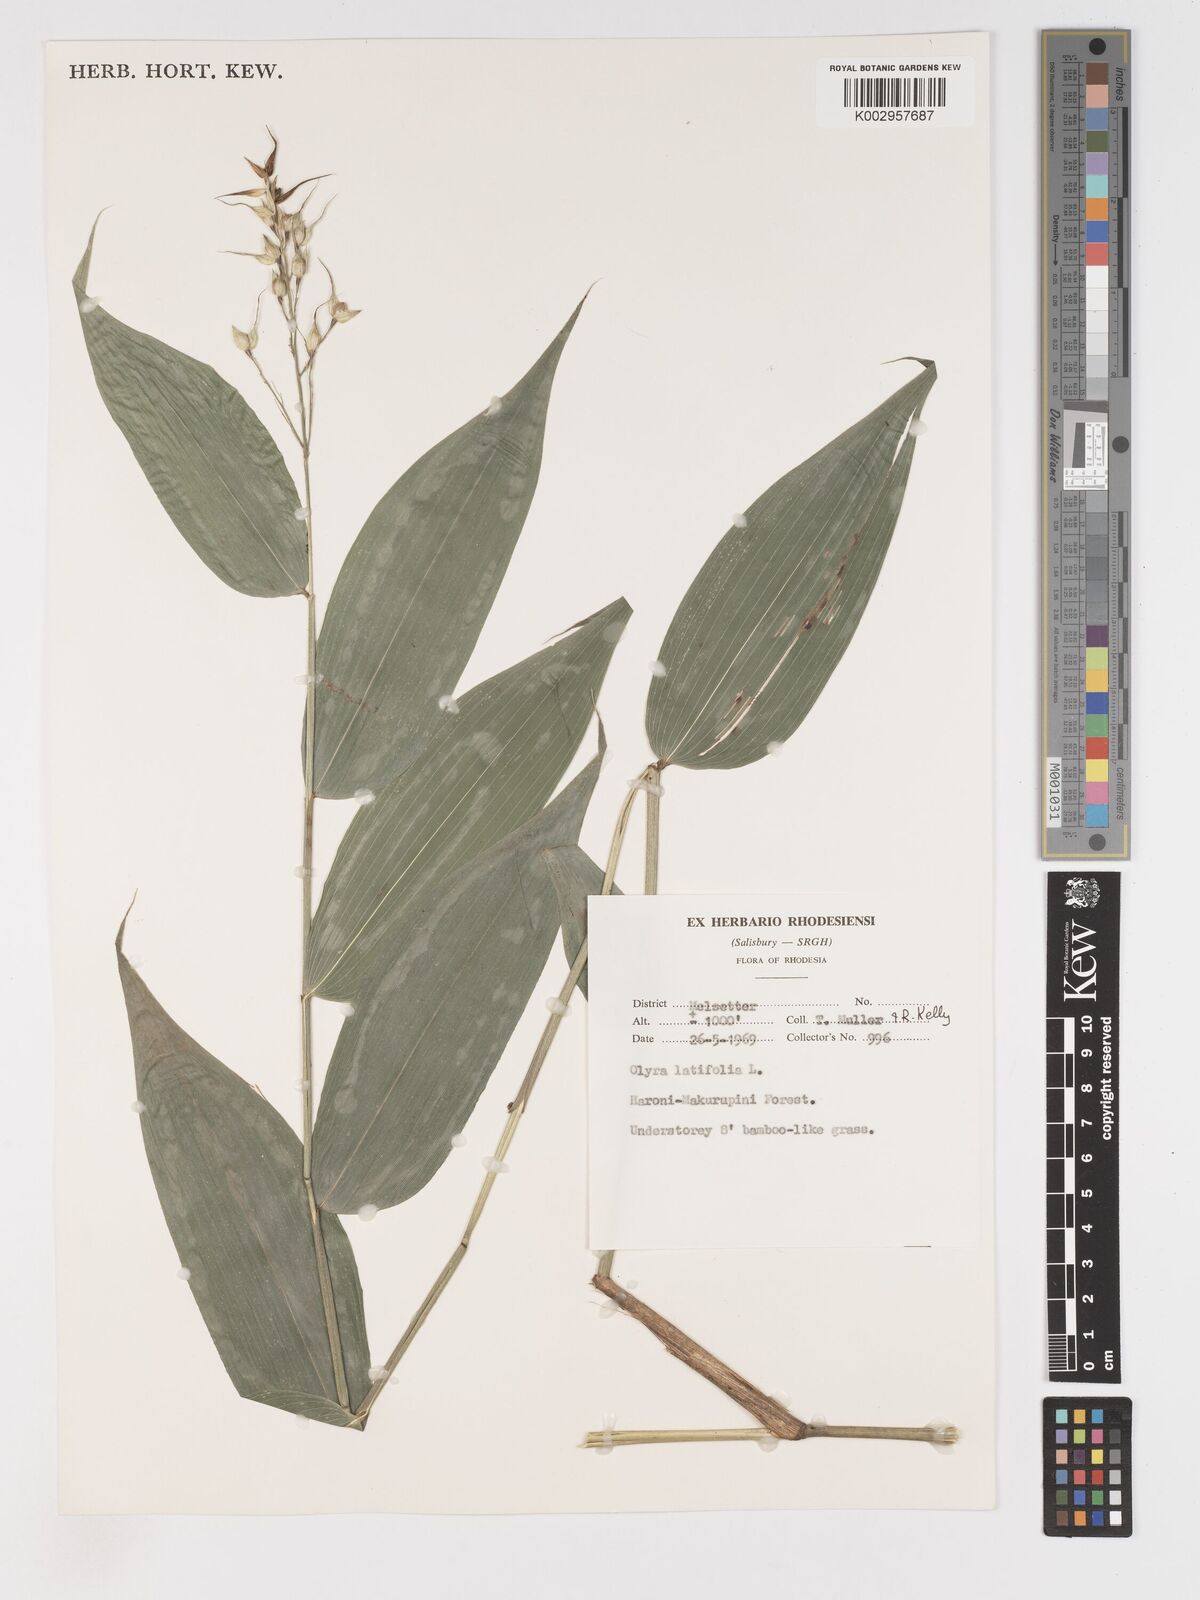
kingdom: Plantae
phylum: Tracheophyta
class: Liliopsida
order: Poales
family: Poaceae
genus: Olyra
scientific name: Olyra latifolia
